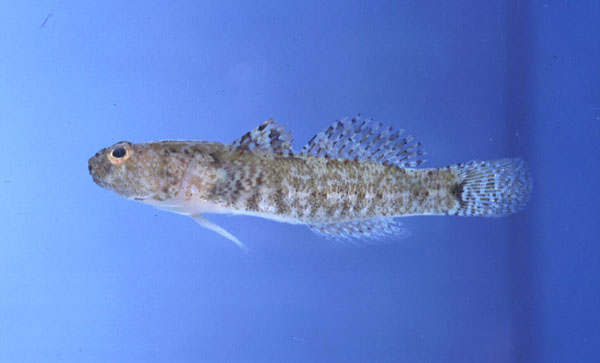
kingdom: Animalia
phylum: Chordata
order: Perciformes
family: Gobiidae
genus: Coryogalops
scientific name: Coryogalops william
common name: Kaalpens goby
